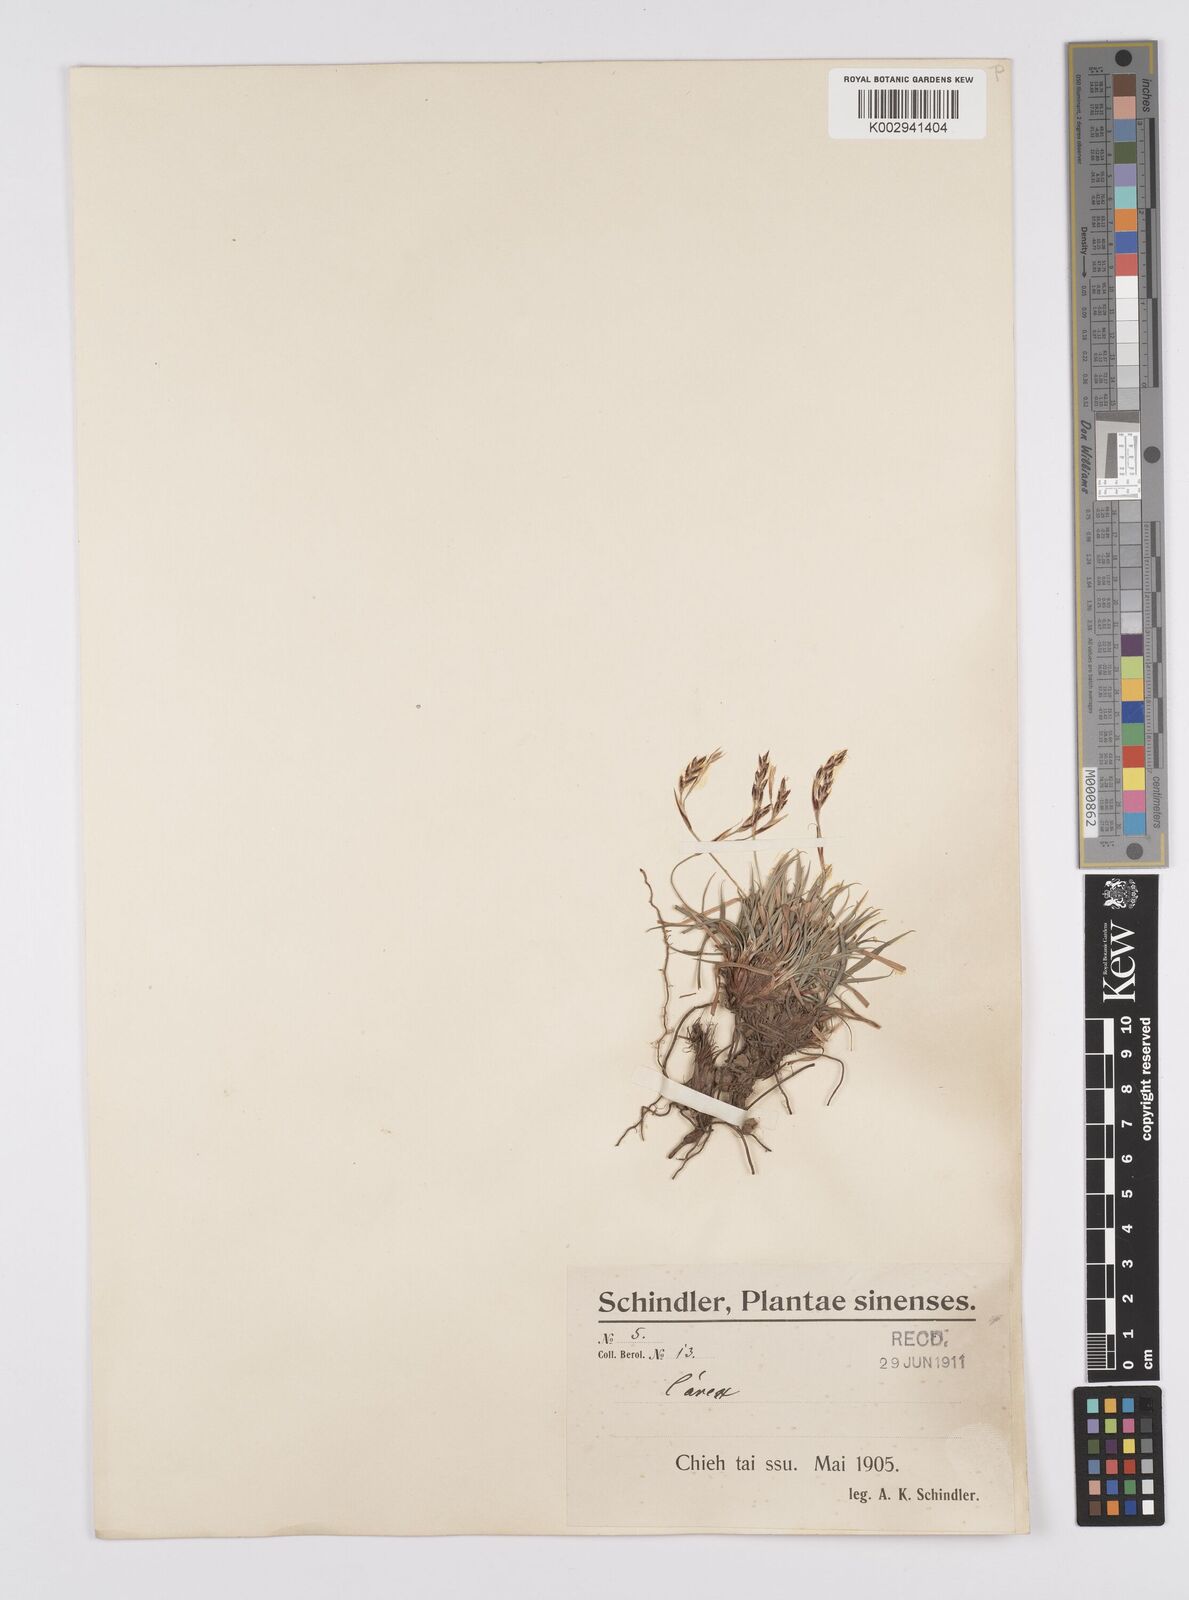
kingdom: Plantae
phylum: Tracheophyta
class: Liliopsida
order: Poales
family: Cyperaceae
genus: Carex
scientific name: Carex pediformis
